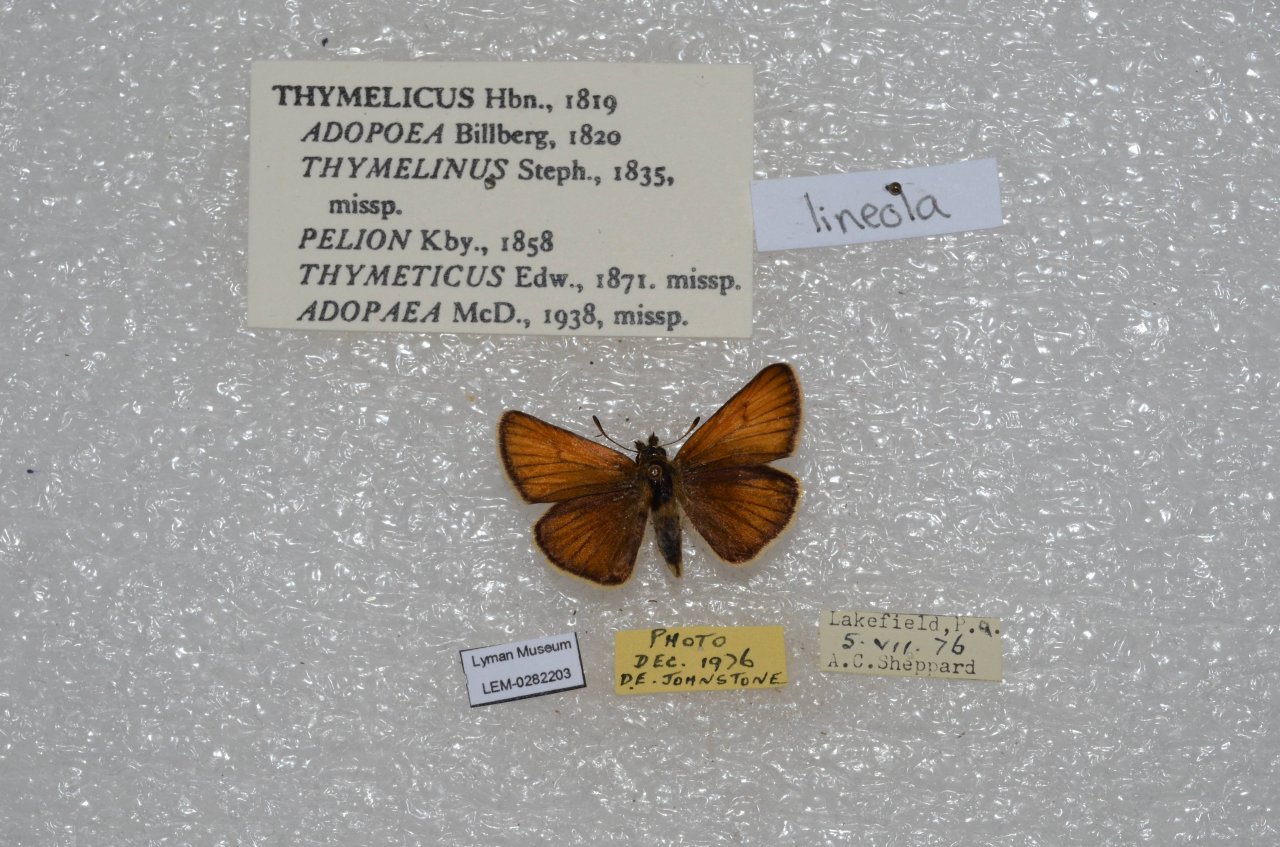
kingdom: Animalia
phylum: Arthropoda
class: Insecta
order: Lepidoptera
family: Hesperiidae
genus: Thymelicus
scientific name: Thymelicus lineola
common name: European Skipper
